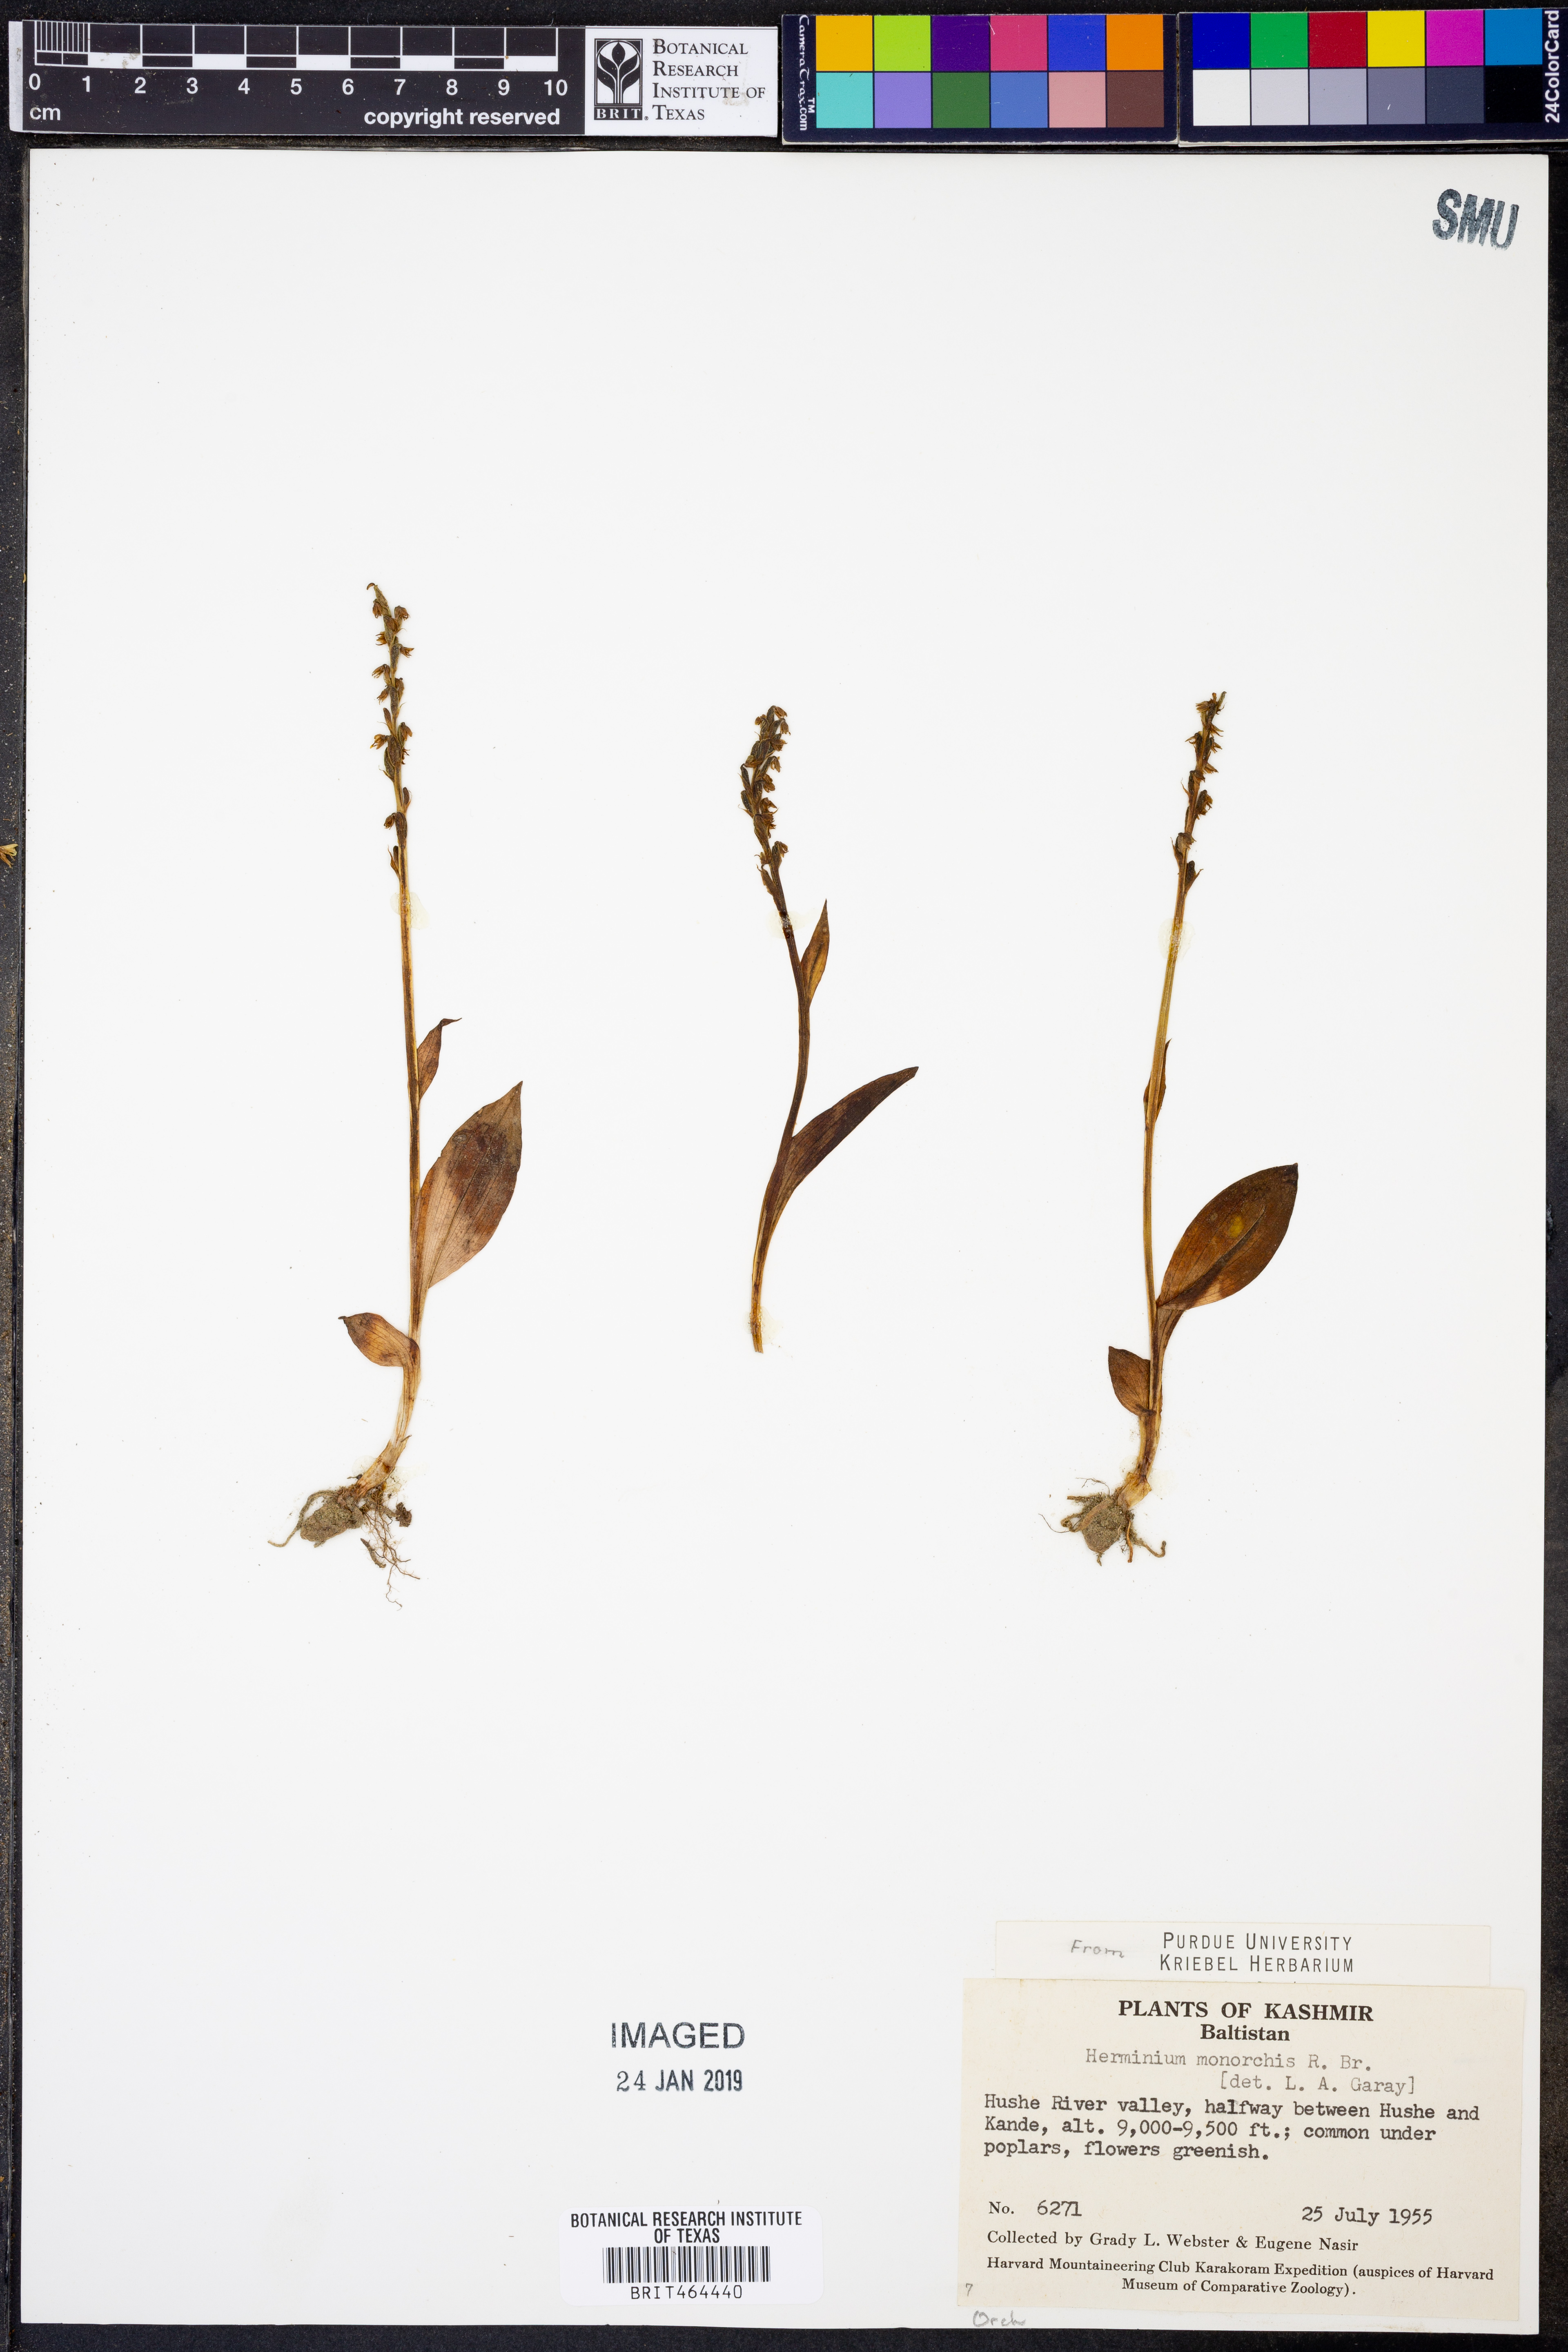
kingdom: Plantae
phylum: Tracheophyta
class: Liliopsida
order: Asparagales
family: Orchidaceae
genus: Herminium
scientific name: Herminium monorchis
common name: Musk orchid
